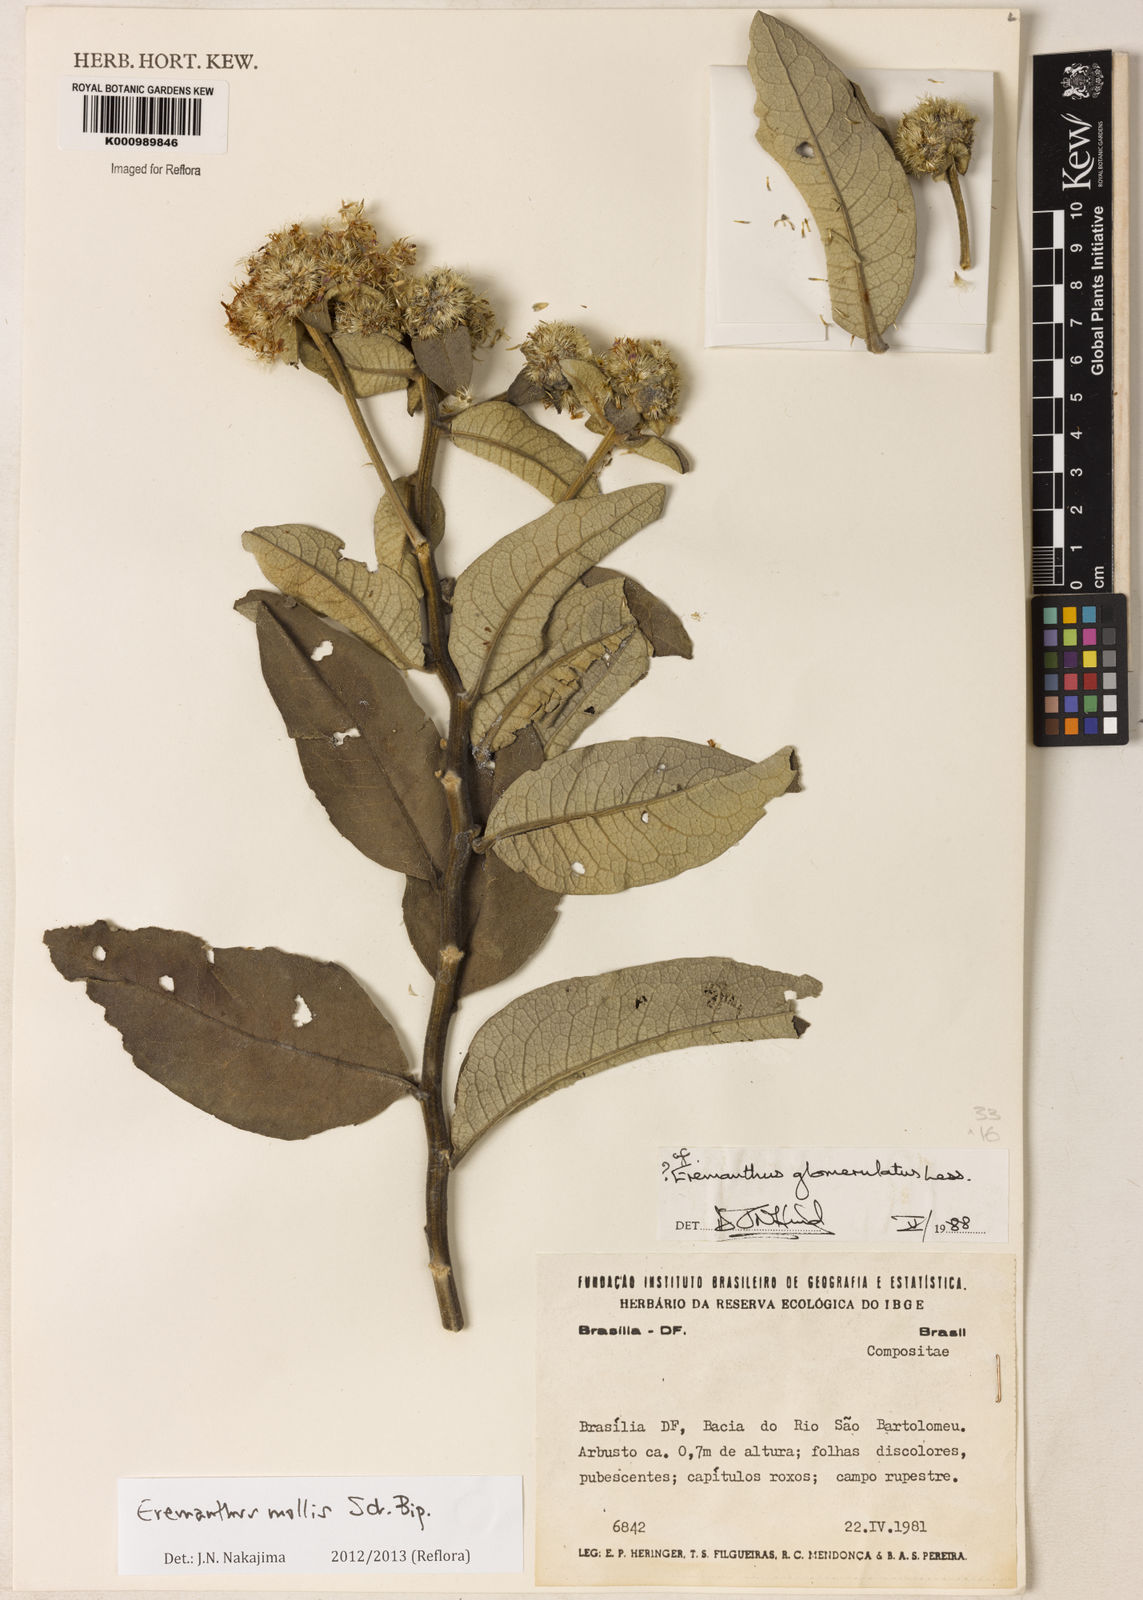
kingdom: Plantae
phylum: Tracheophyta
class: Magnoliopsida
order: Asterales
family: Asteraceae
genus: Eremanthus
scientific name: Eremanthus mollis
